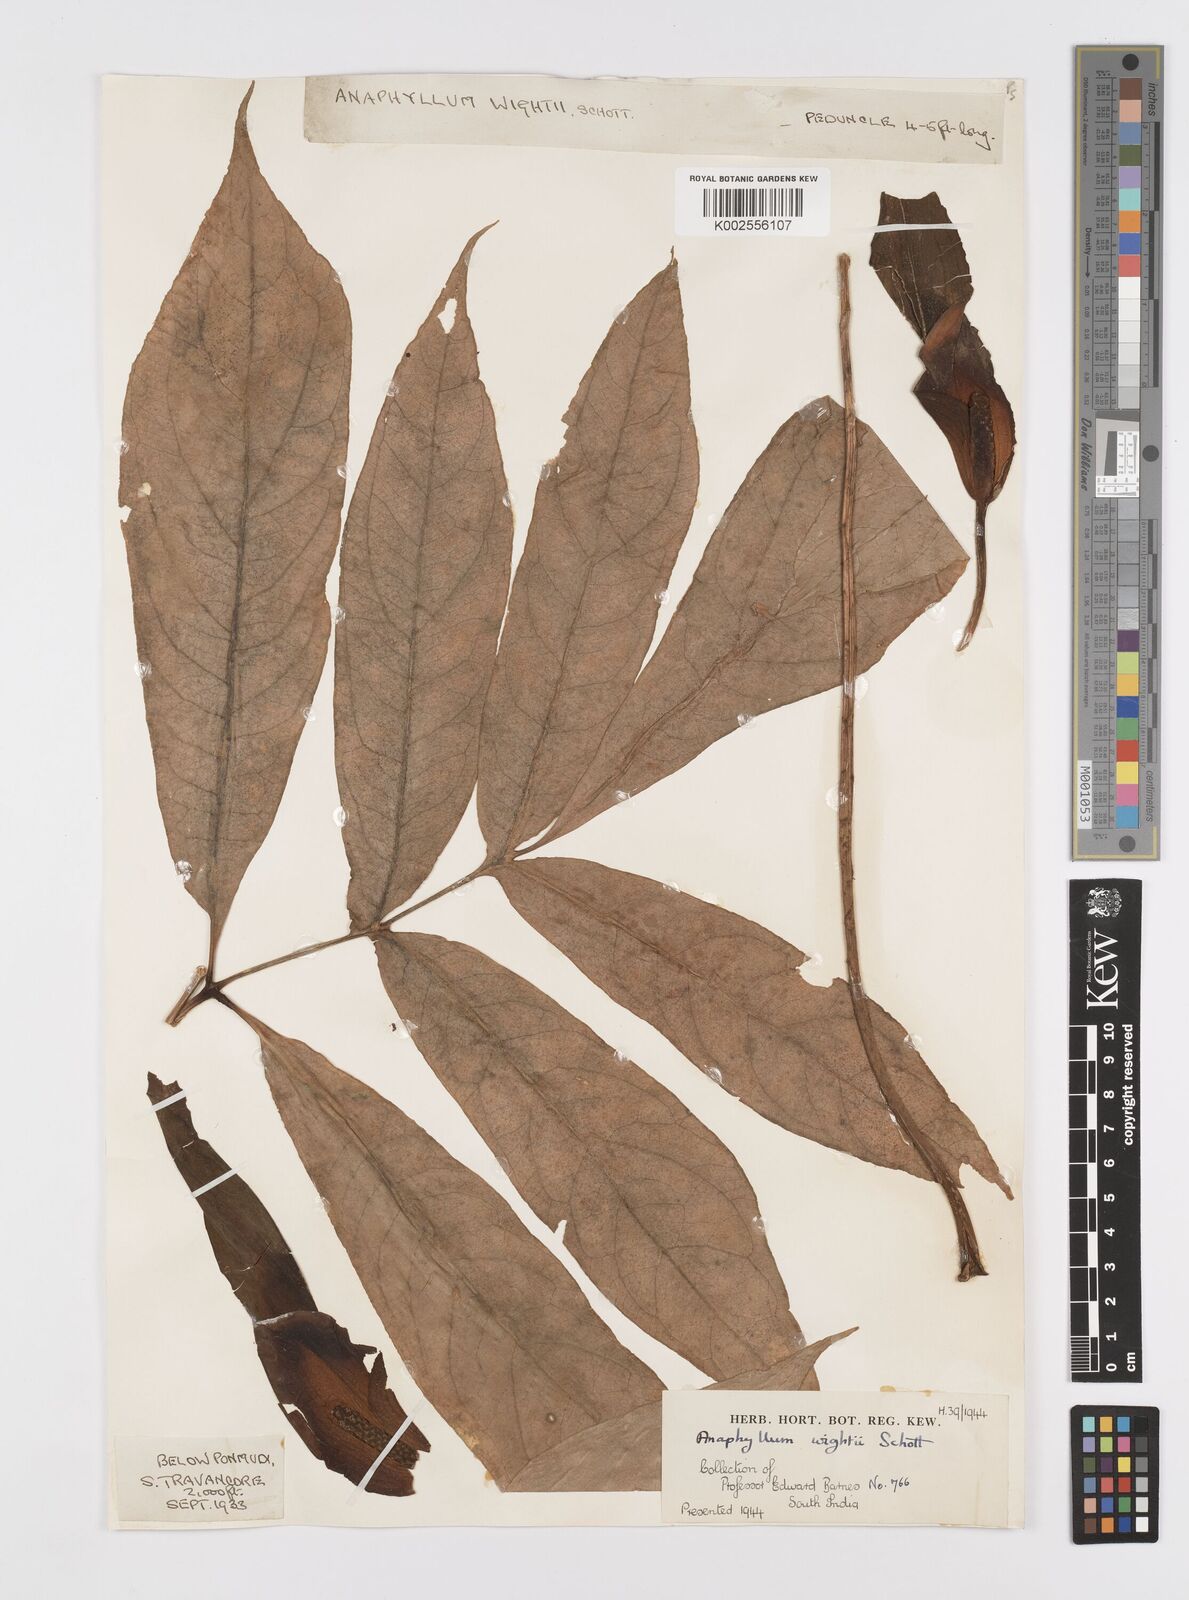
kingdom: Plantae
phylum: Tracheophyta
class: Liliopsida
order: Alismatales
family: Araceae
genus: Anaphyllum
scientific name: Anaphyllum wightii
